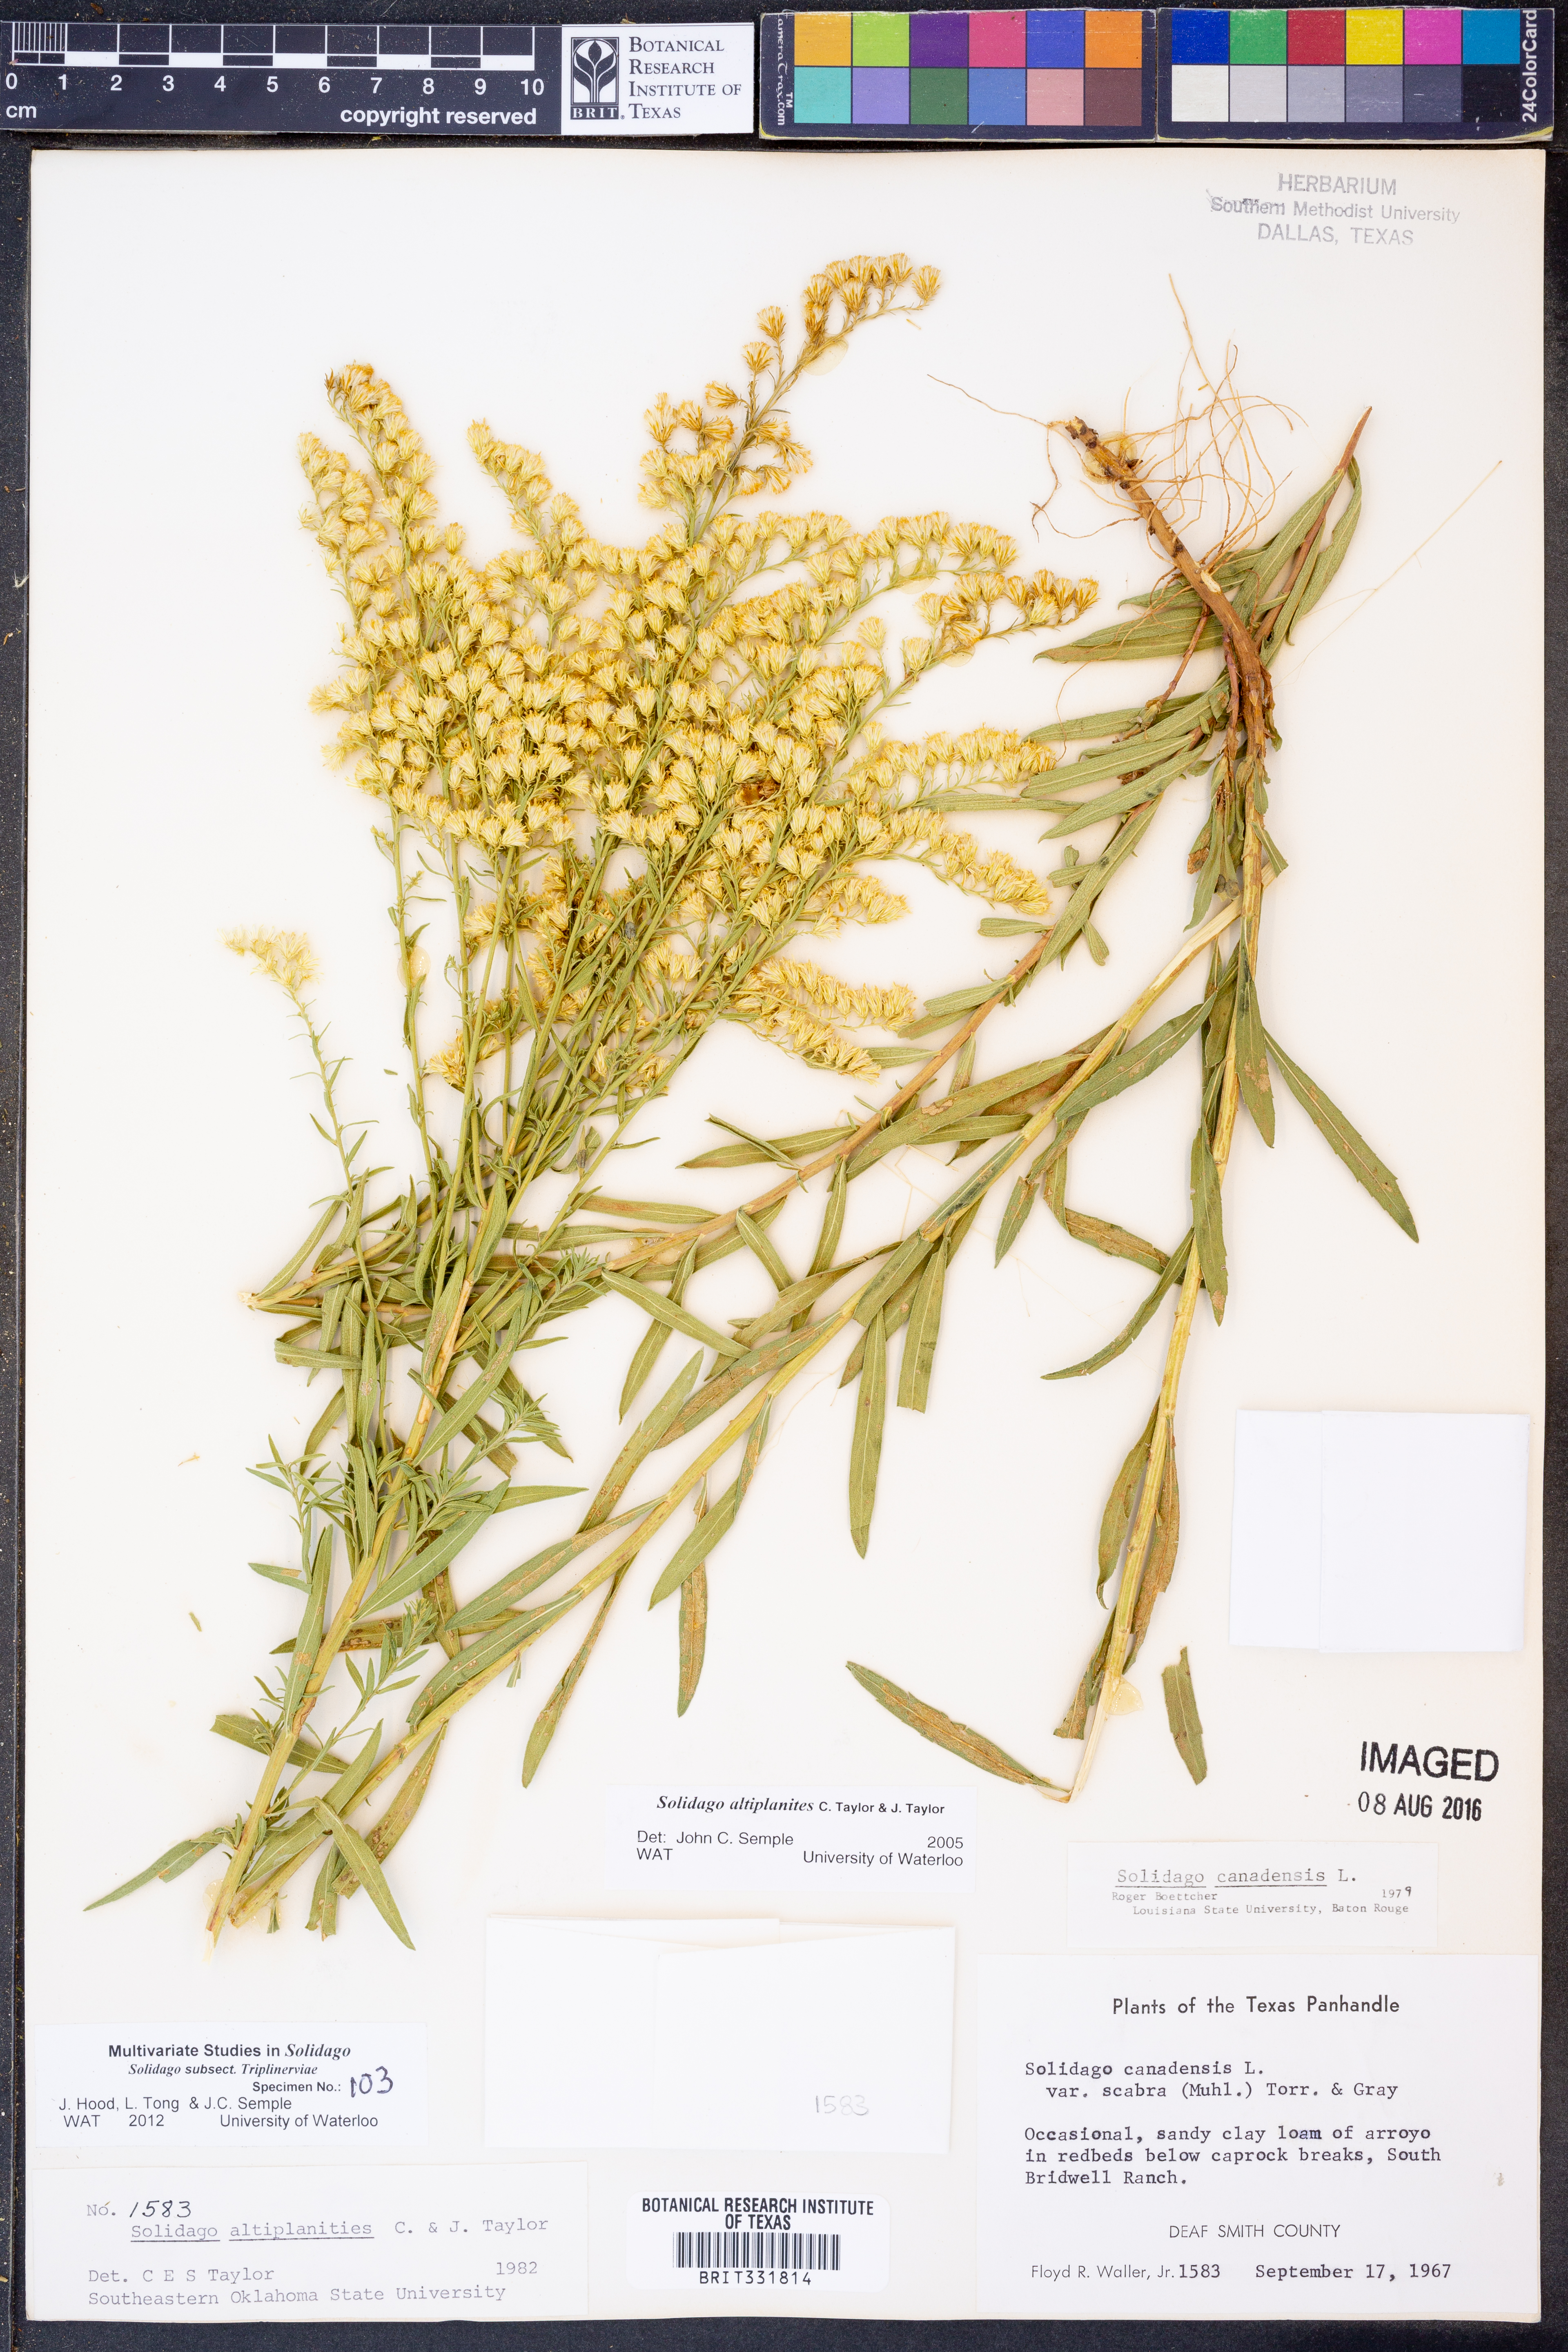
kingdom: Plantae
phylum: Tracheophyta
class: Magnoliopsida
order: Asterales
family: Asteraceae
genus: Solidago
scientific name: Solidago altiplanities
